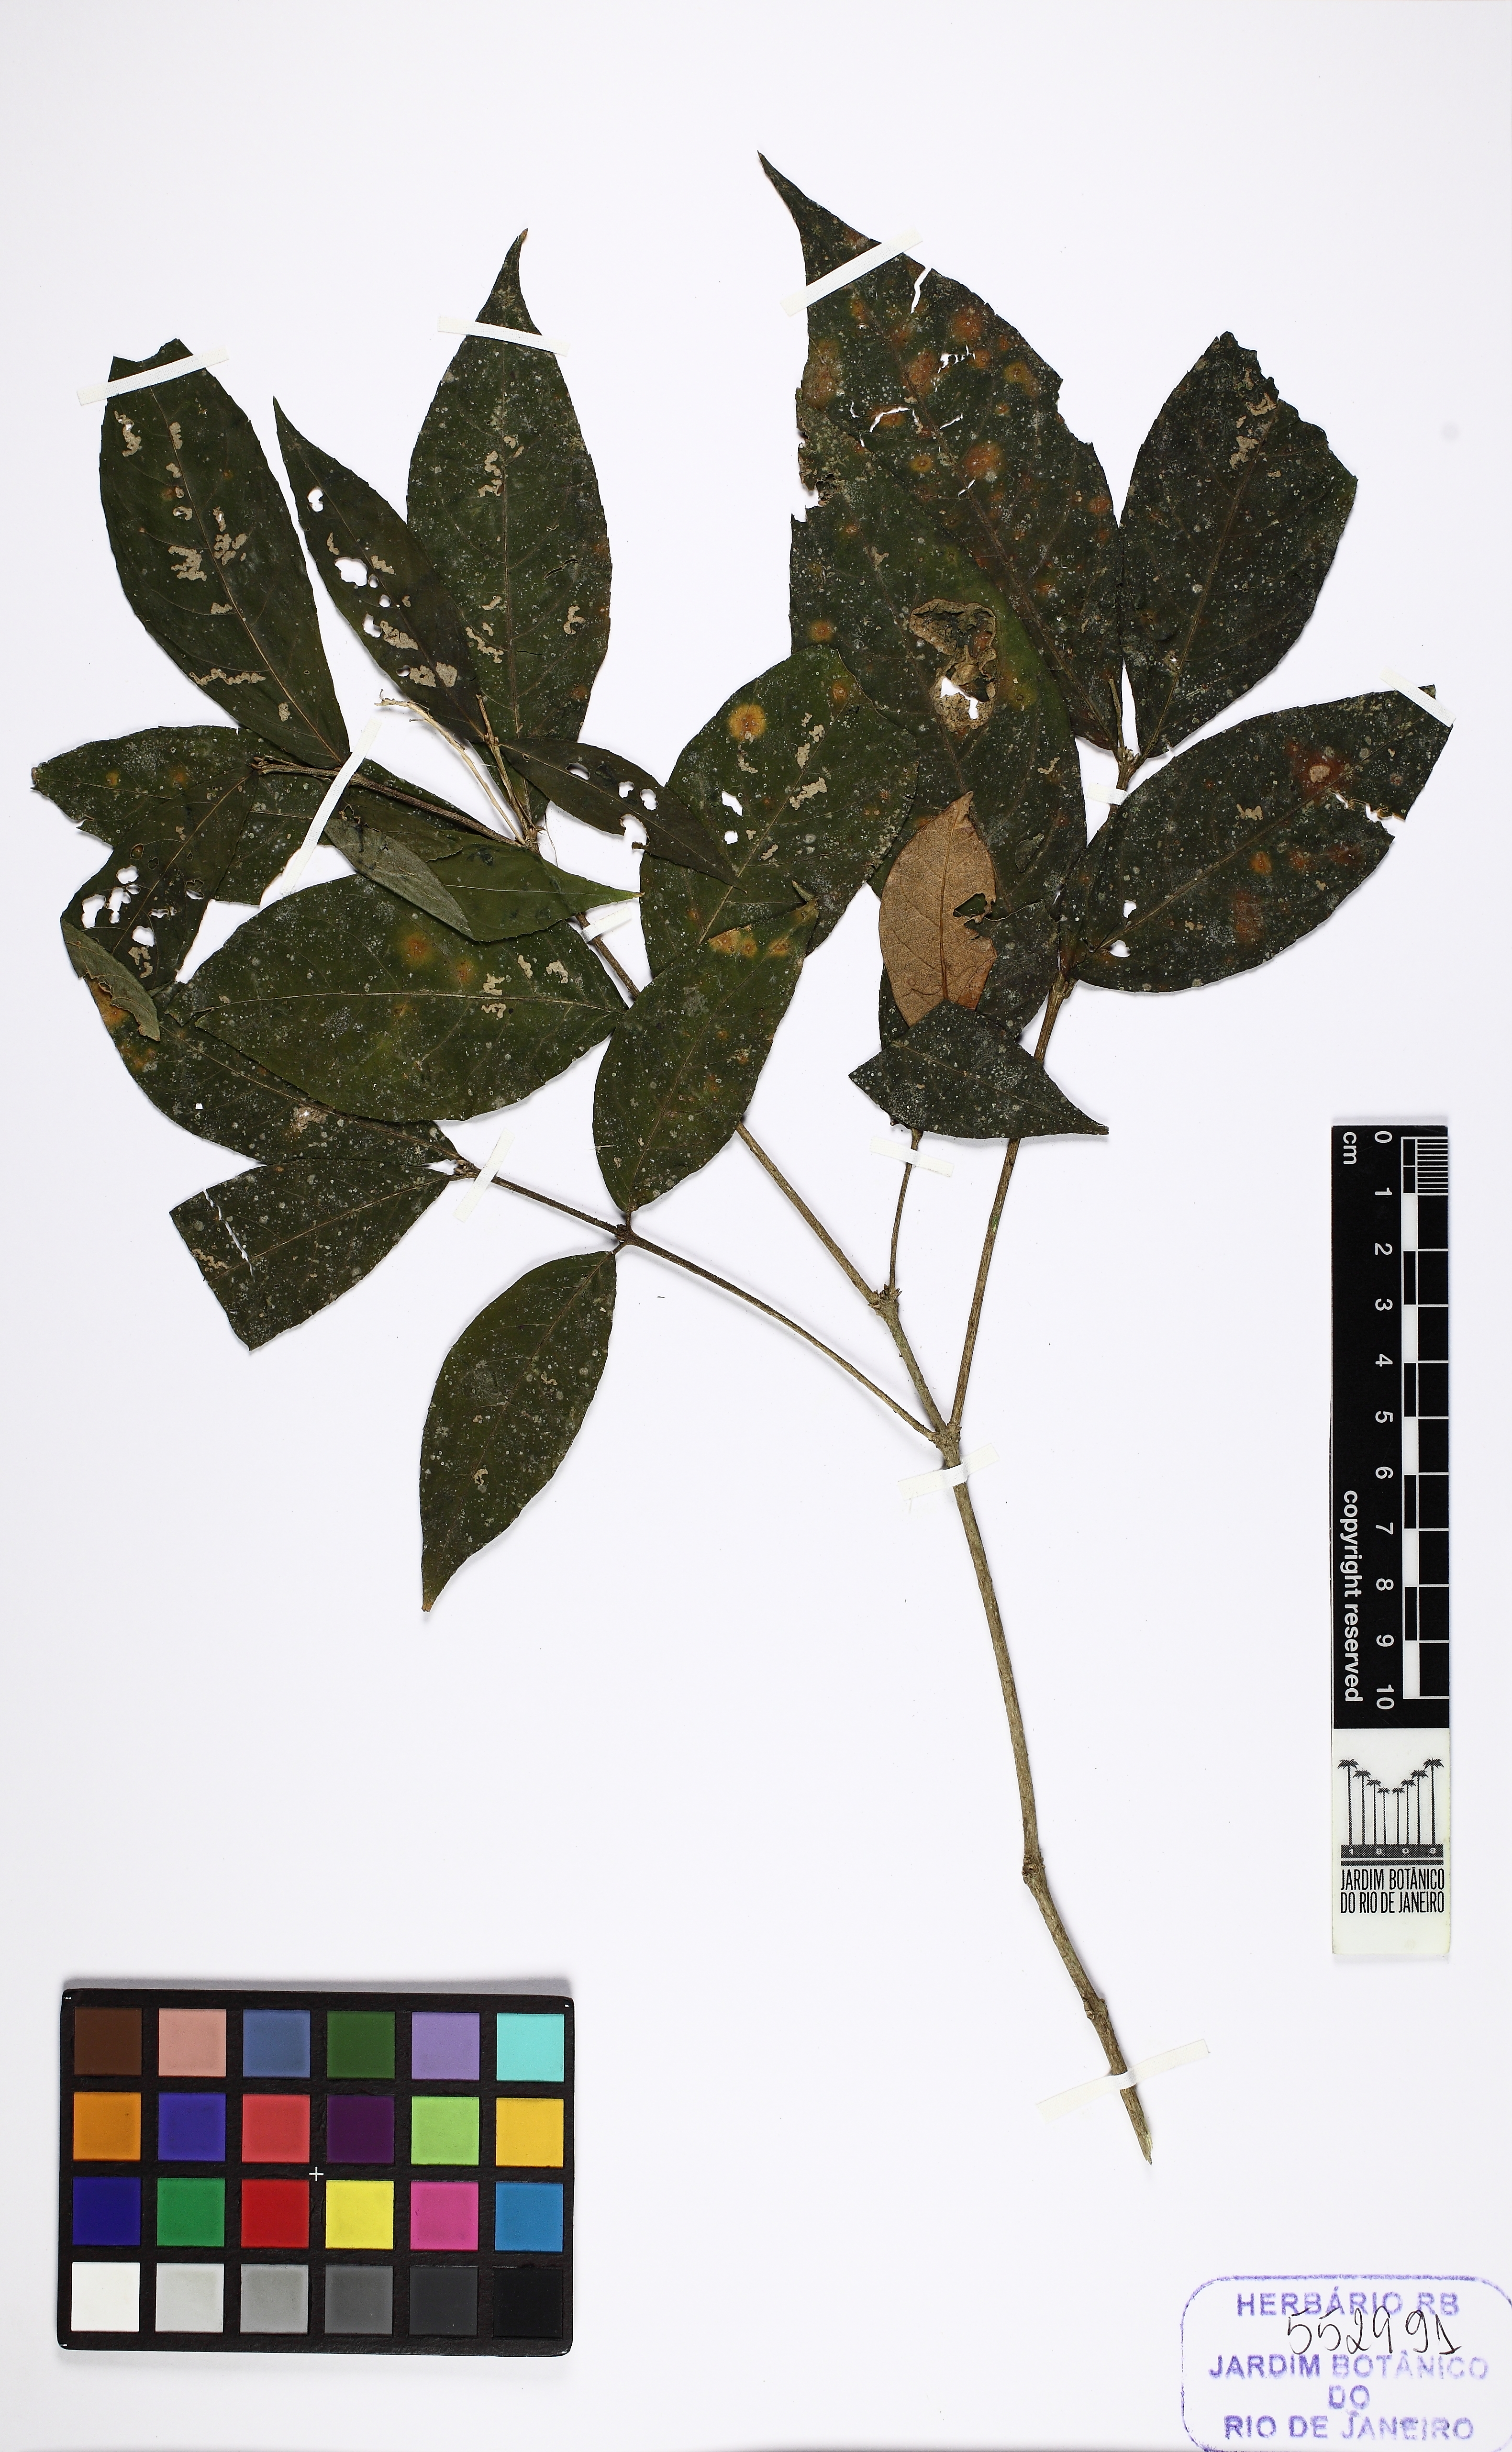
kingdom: Plantae
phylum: Tracheophyta
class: Magnoliopsida
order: Malpighiales
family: Violaceae
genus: Pombalia
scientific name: Pombalia atropurpurea
